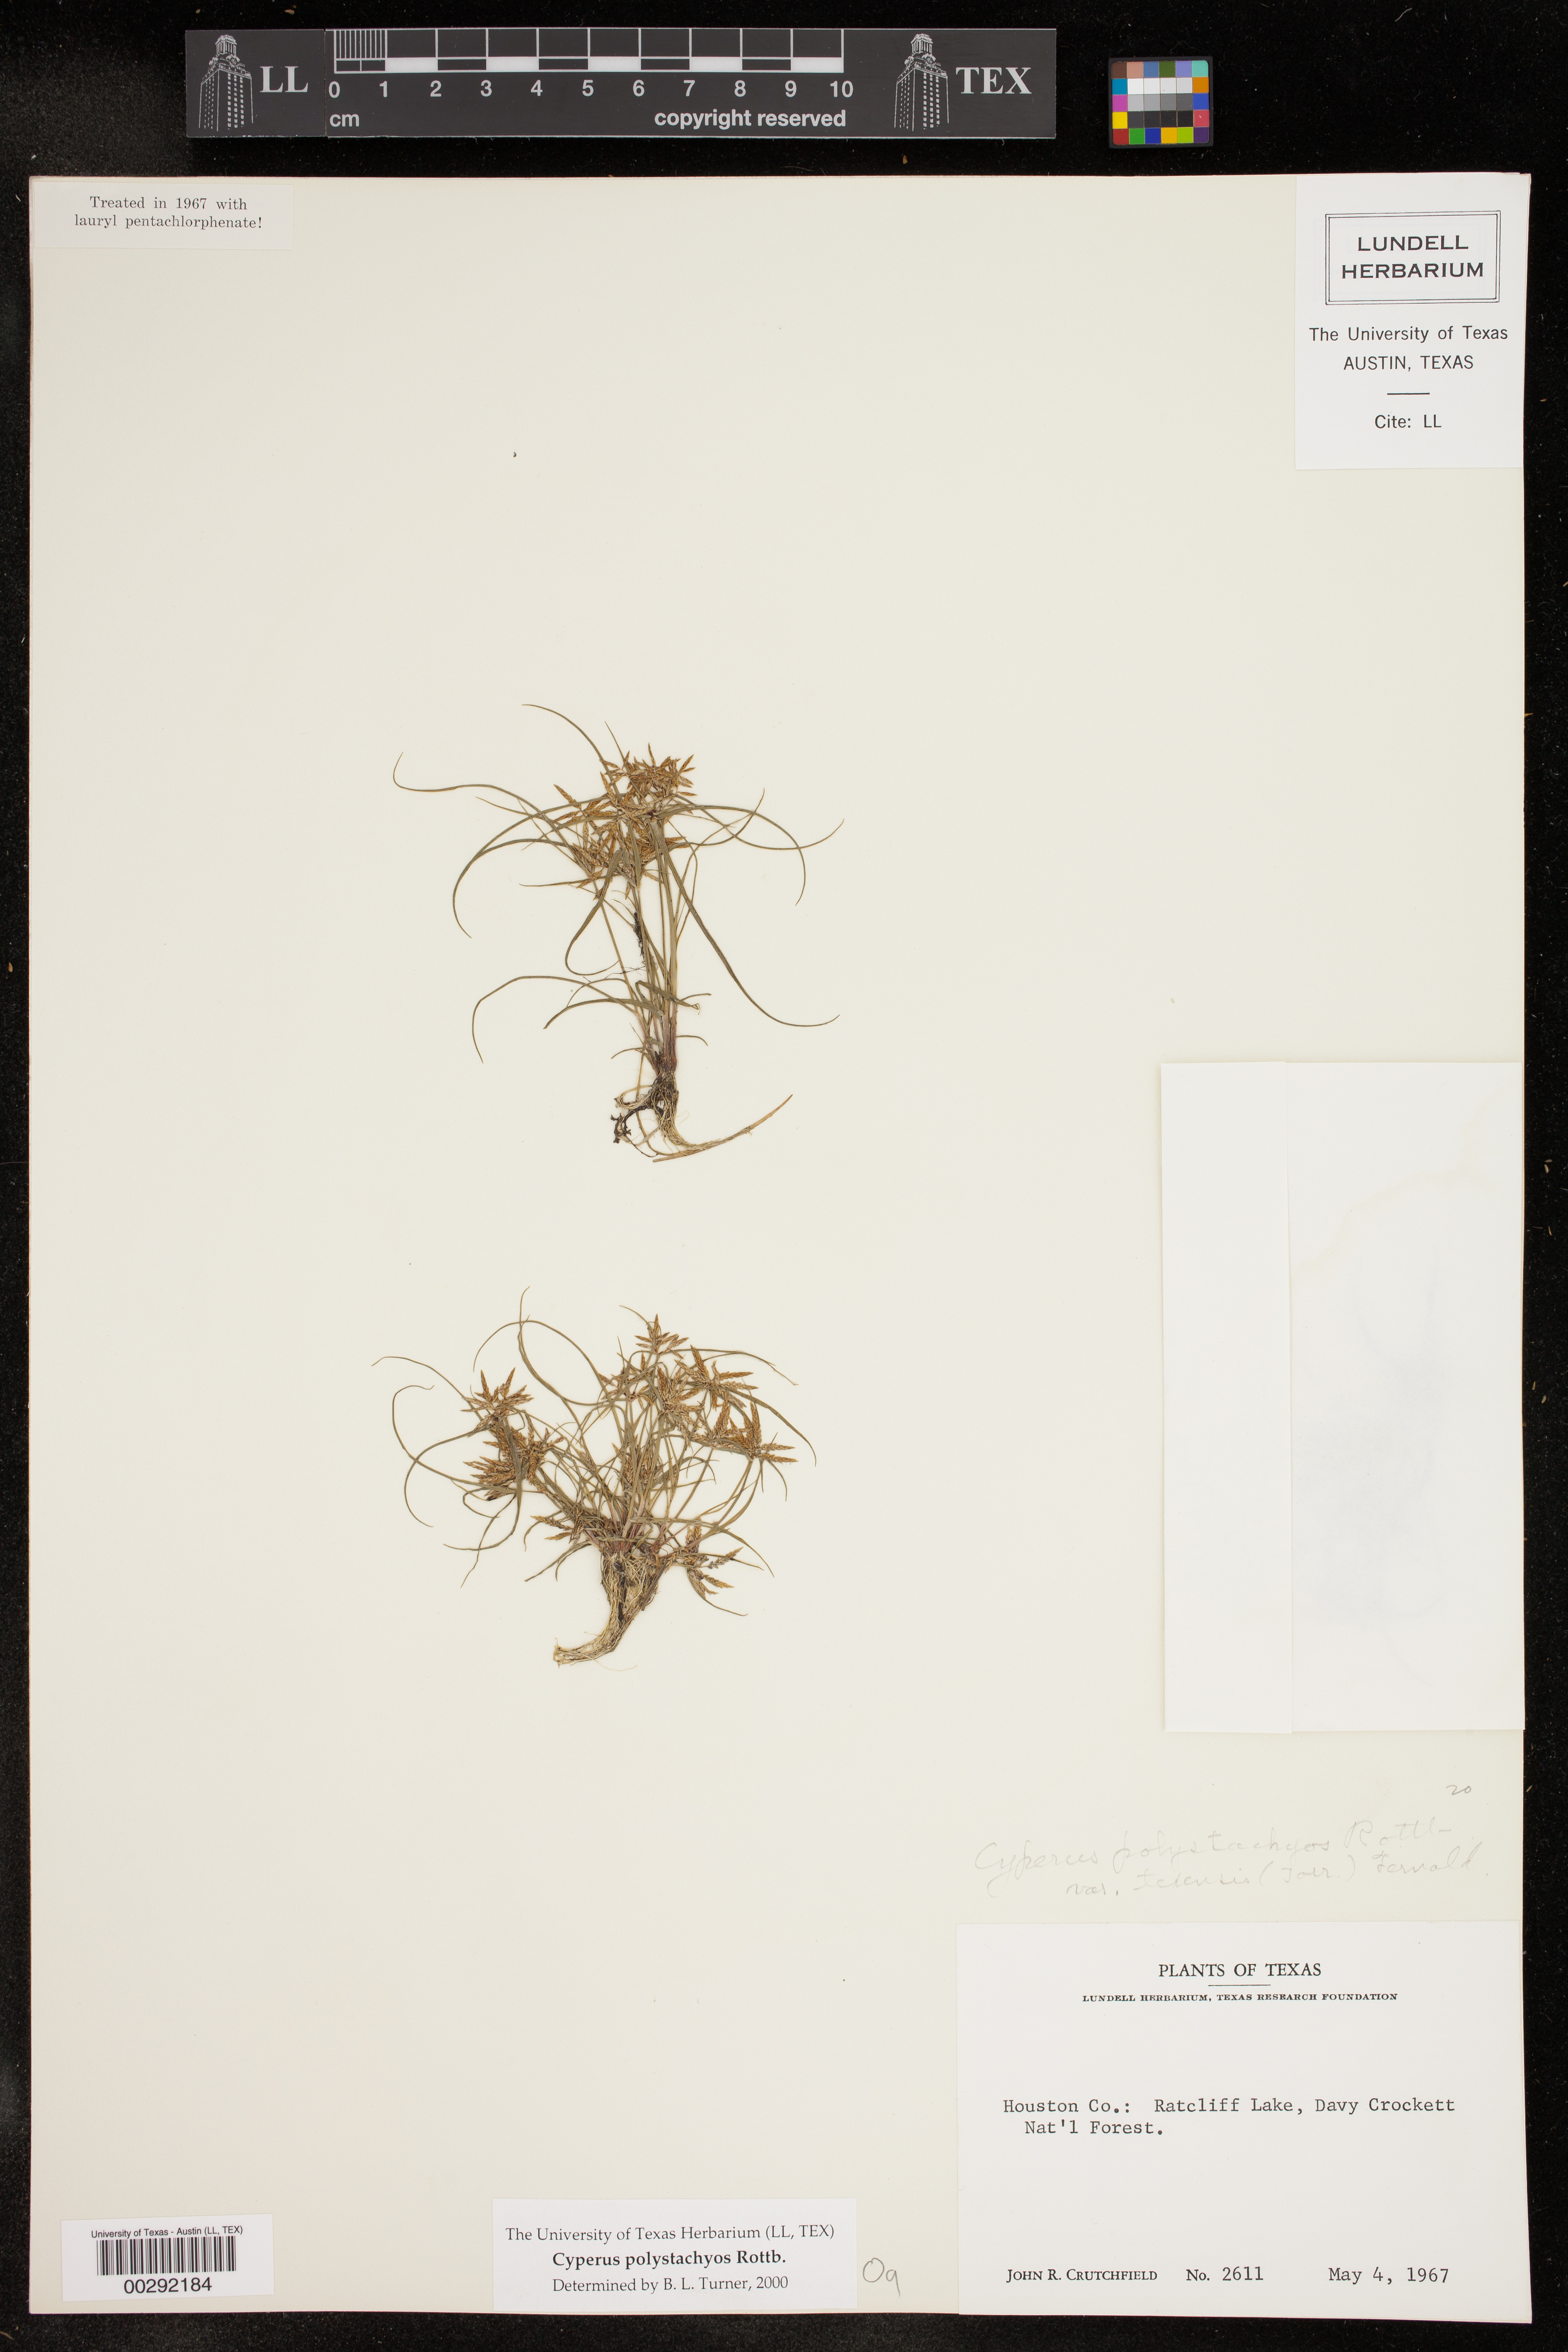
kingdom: Plantae
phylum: Tracheophyta
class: Liliopsida
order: Poales
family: Cyperaceae
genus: Cyperus
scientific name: Cyperus polystachyos
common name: Bunchy flat sedge
